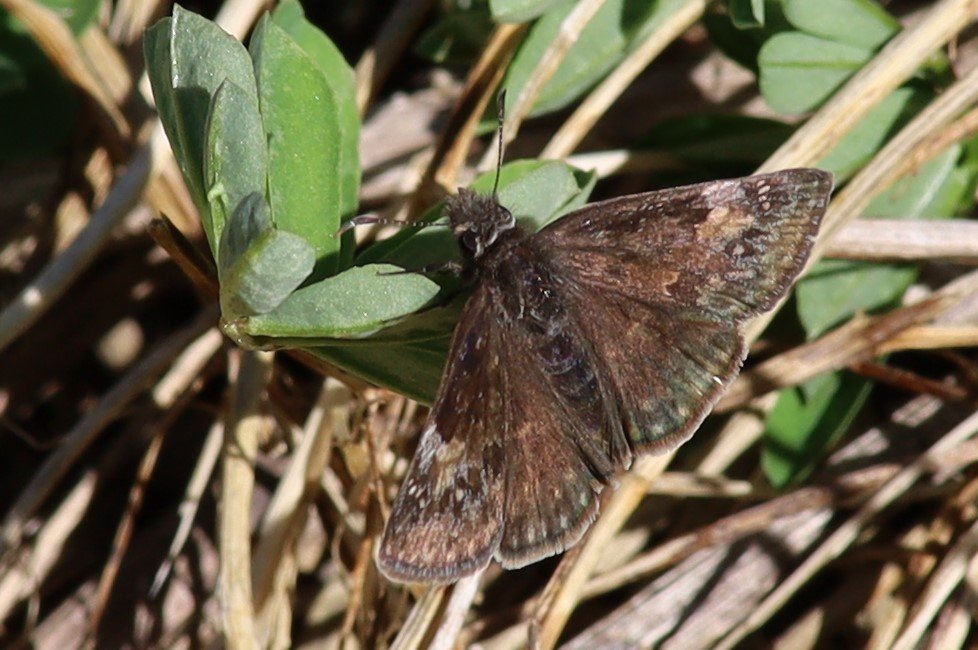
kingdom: Animalia
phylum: Arthropoda
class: Insecta
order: Lepidoptera
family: Hesperiidae
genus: Gesta
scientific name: Gesta
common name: Wild Indigo Duskywing
